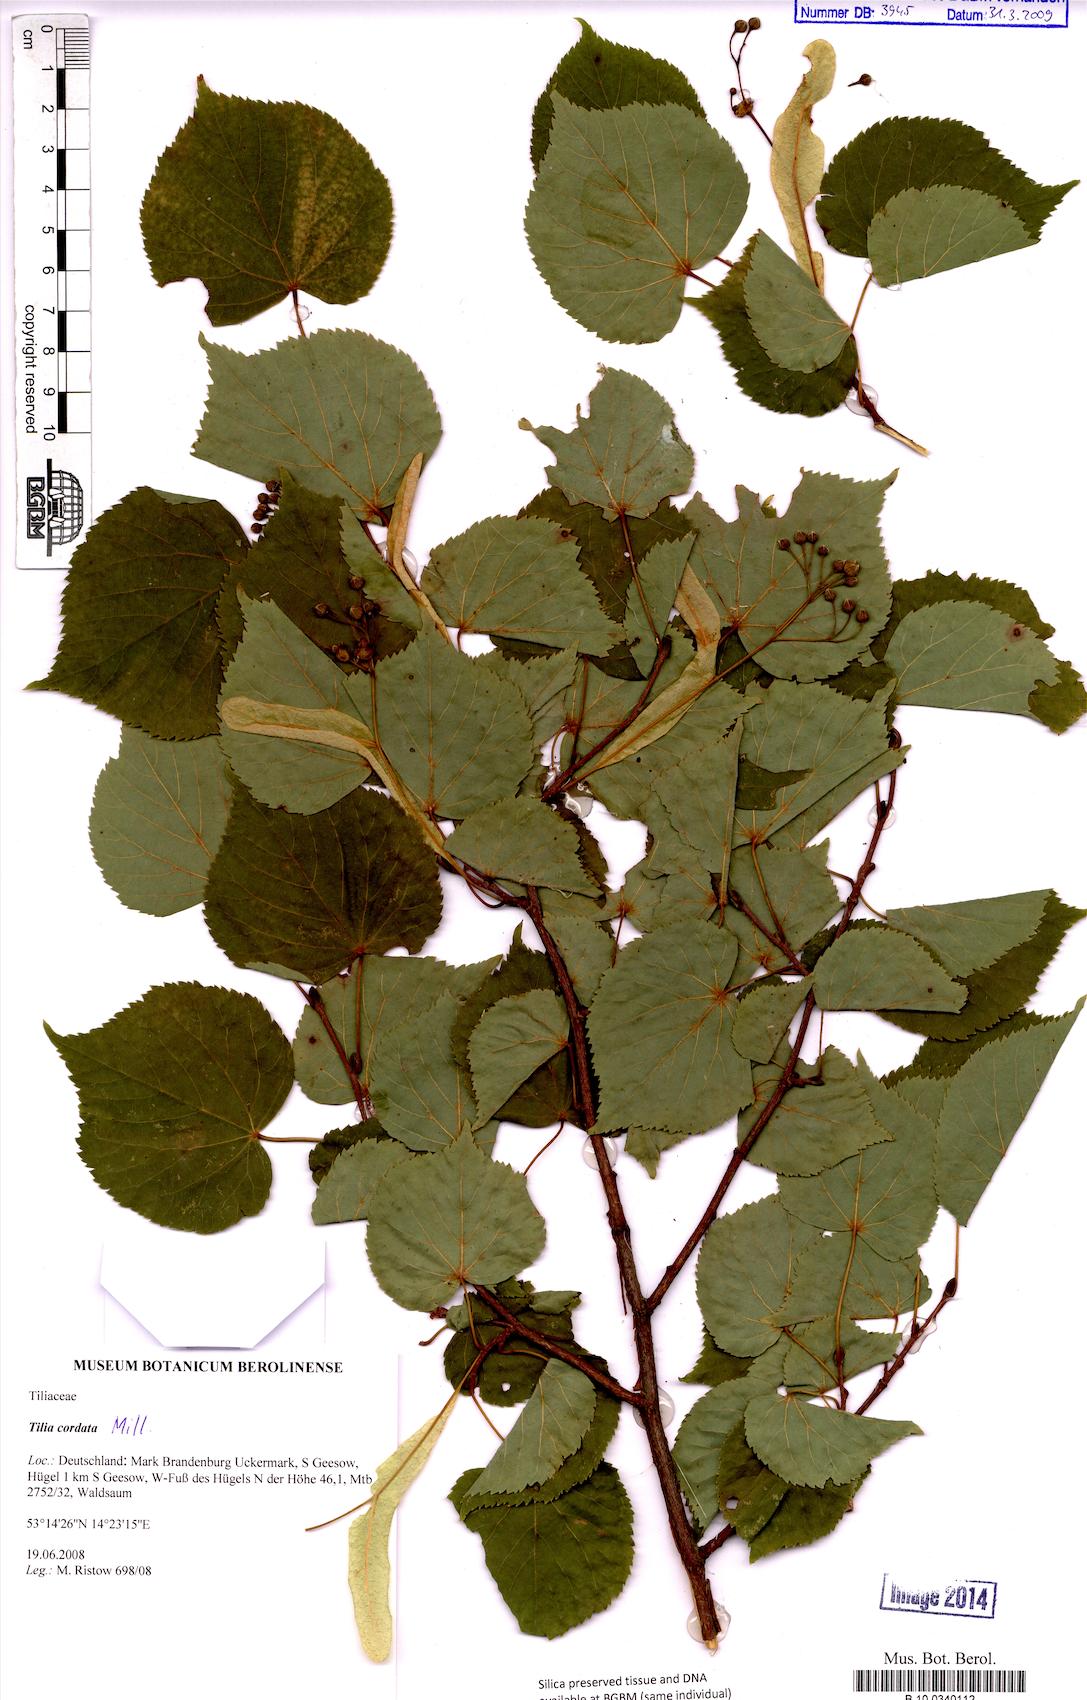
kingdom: Plantae
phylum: Tracheophyta
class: Magnoliopsida
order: Malvales
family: Malvaceae
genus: Tilia
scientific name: Tilia cordata
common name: Small-leaved lime
